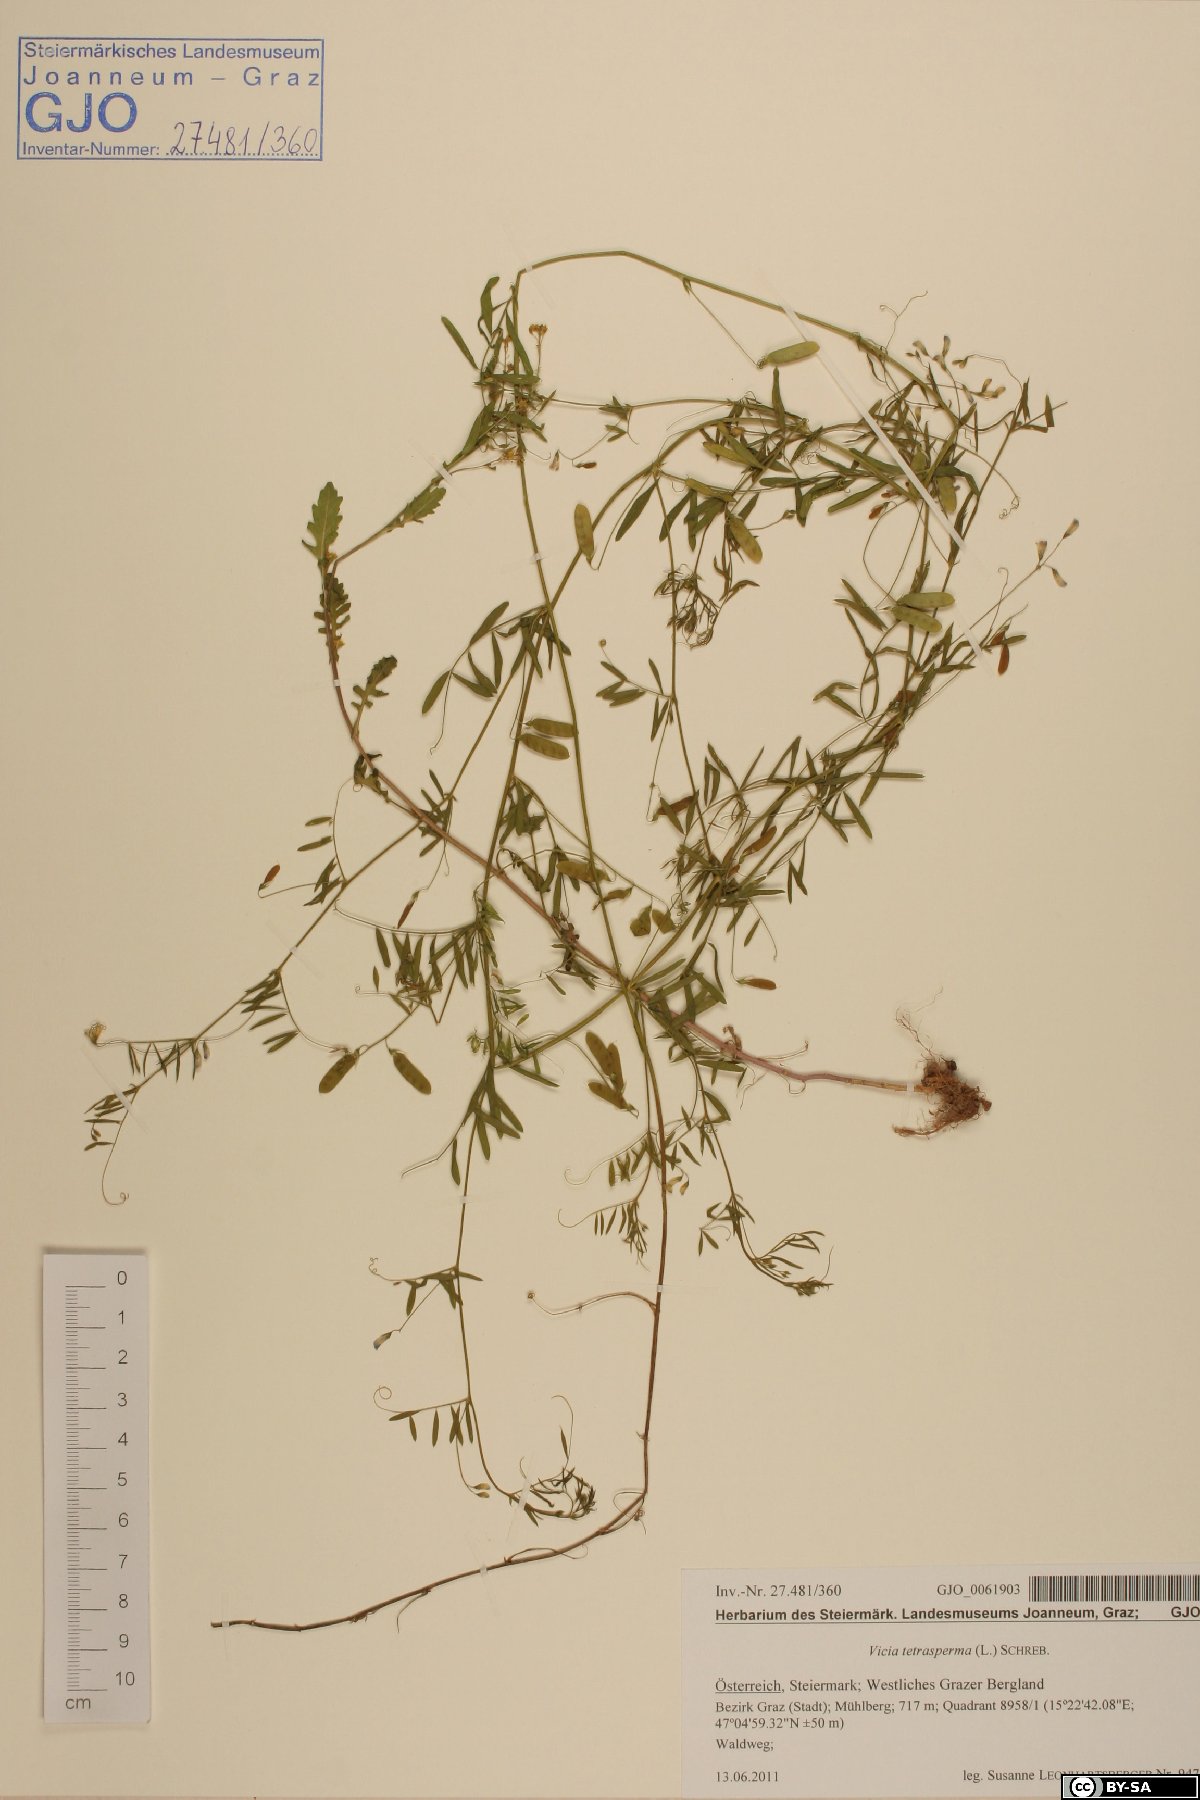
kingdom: Plantae
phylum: Tracheophyta
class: Magnoliopsida
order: Fabales
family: Fabaceae
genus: Vicia
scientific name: Vicia tetrasperma
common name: Smooth tare
